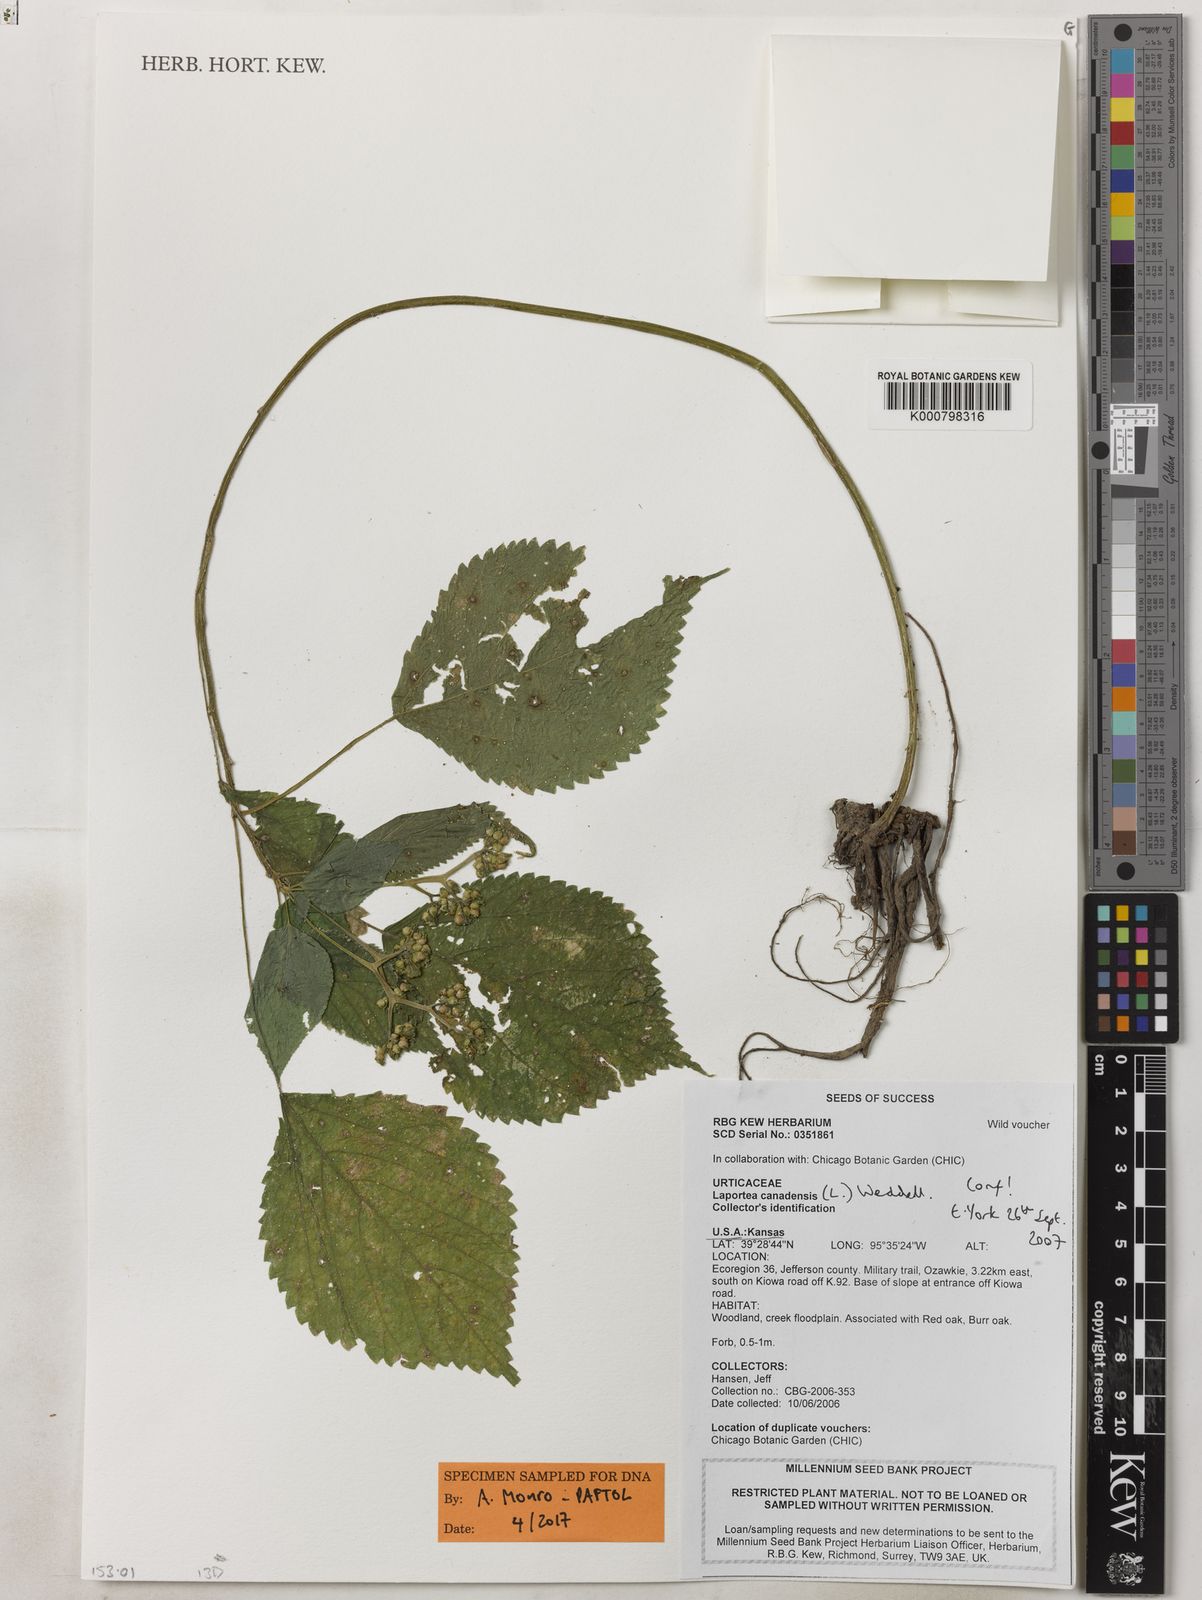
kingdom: Plantae
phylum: Tracheophyta
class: Magnoliopsida
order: Rosales
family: Urticaceae
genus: Laportea
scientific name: Laportea canadensis
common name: Canada nettle
